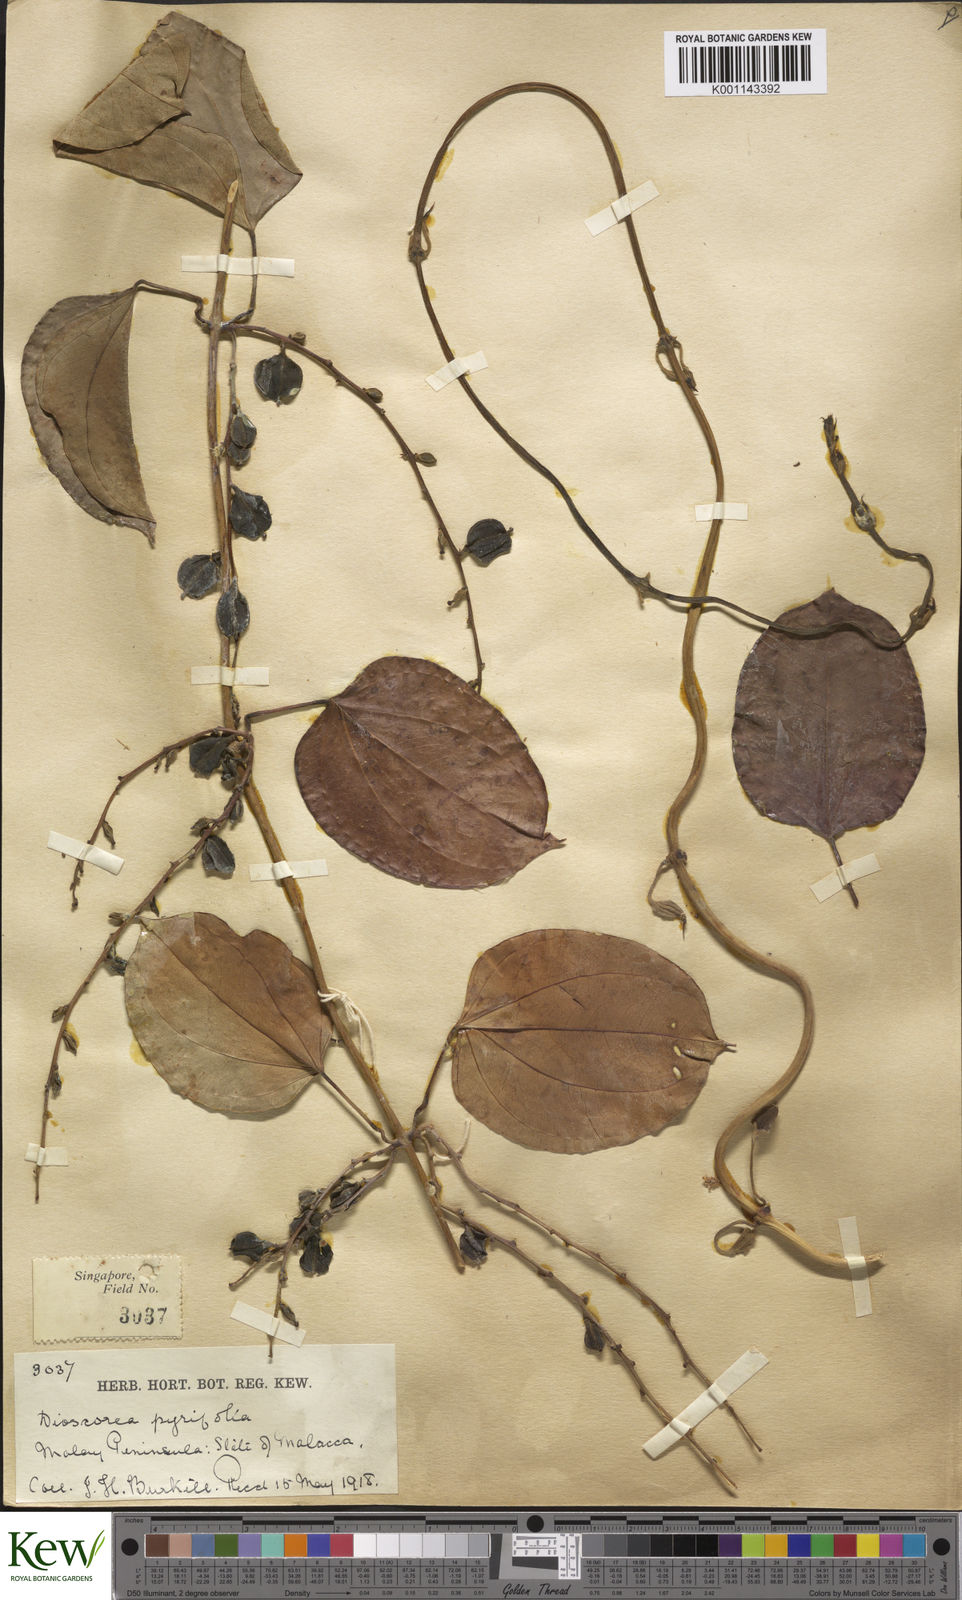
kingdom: Plantae
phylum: Tracheophyta
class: Liliopsida
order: Dioscoreales
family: Dioscoreaceae
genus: Dioscorea
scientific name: Dioscorea pyrifolia
